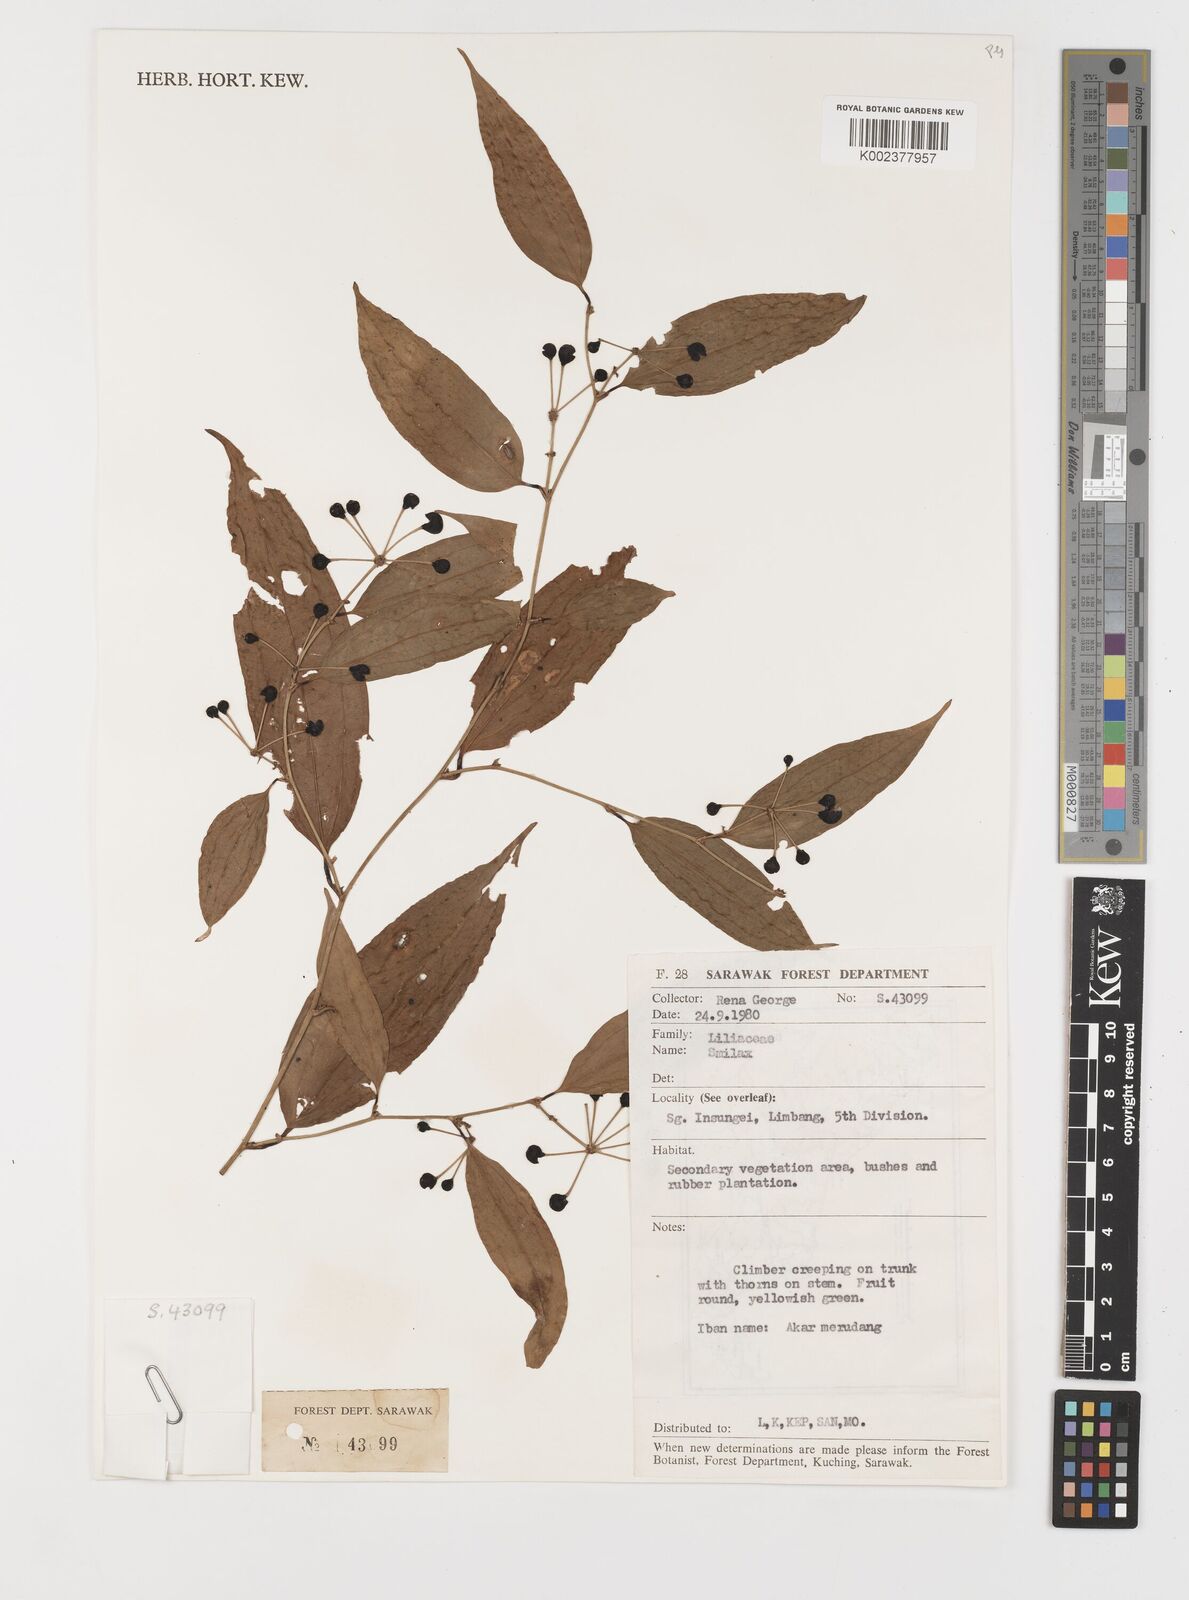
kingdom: Plantae
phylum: Tracheophyta
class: Liliopsida
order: Liliales
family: Smilacaceae
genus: Smilax
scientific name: Smilax
